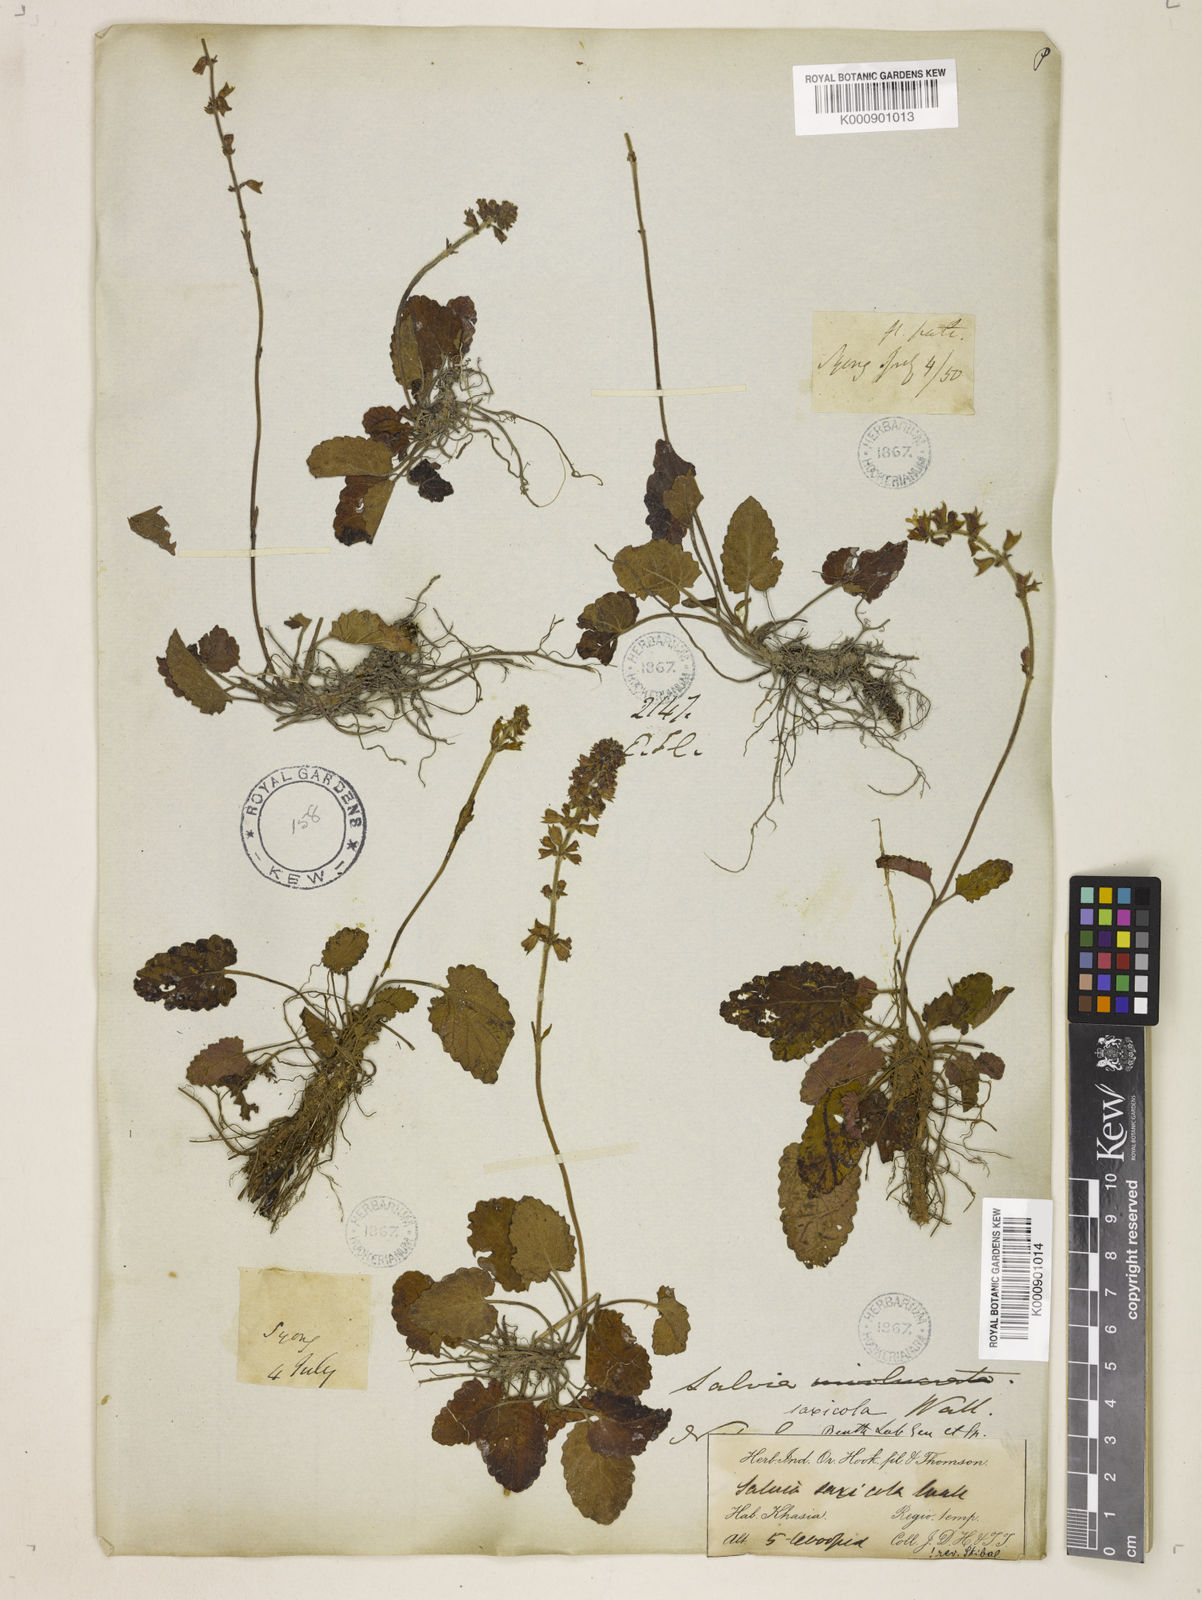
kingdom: Plantae
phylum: Tracheophyta
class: Magnoliopsida
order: Lamiales
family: Lamiaceae
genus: Salvia
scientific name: Salvia
